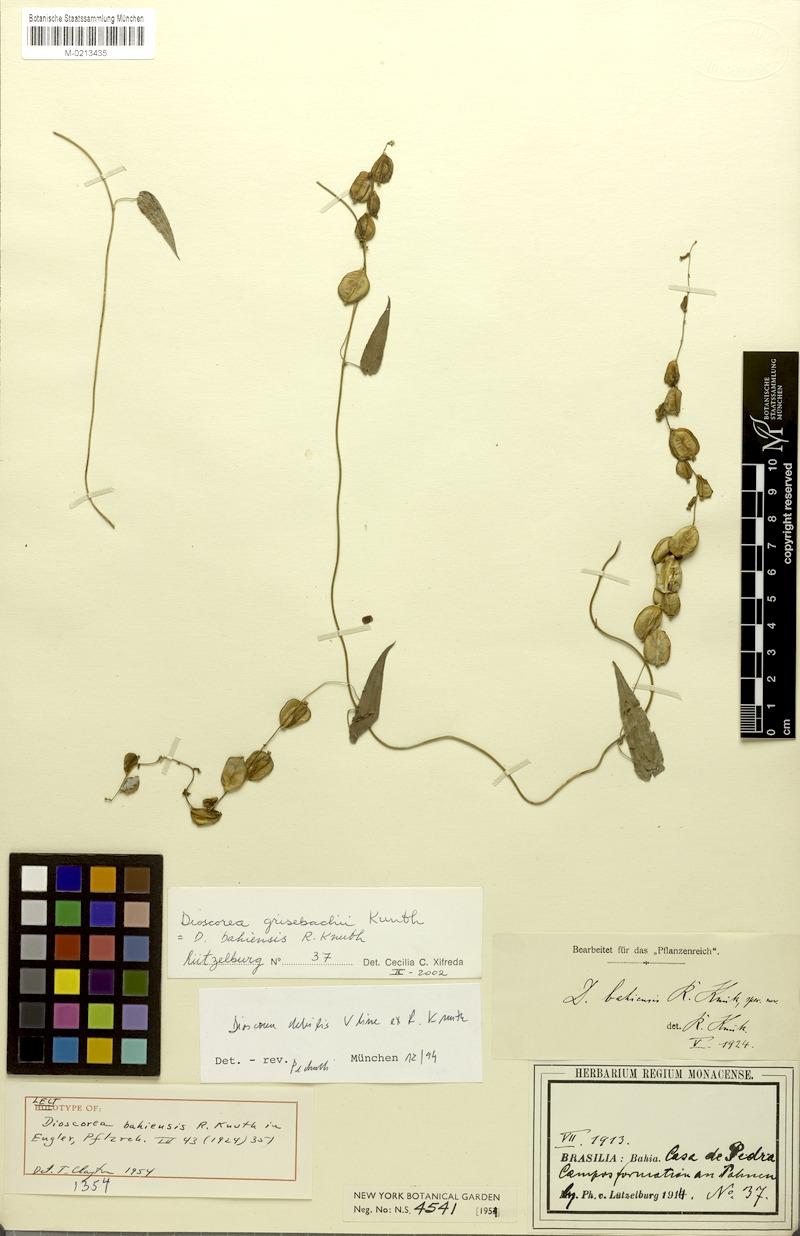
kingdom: Plantae
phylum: Tracheophyta
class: Liliopsida
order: Dioscoreales
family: Dioscoreaceae
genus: Dioscorea
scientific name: Dioscorea bahiensis
